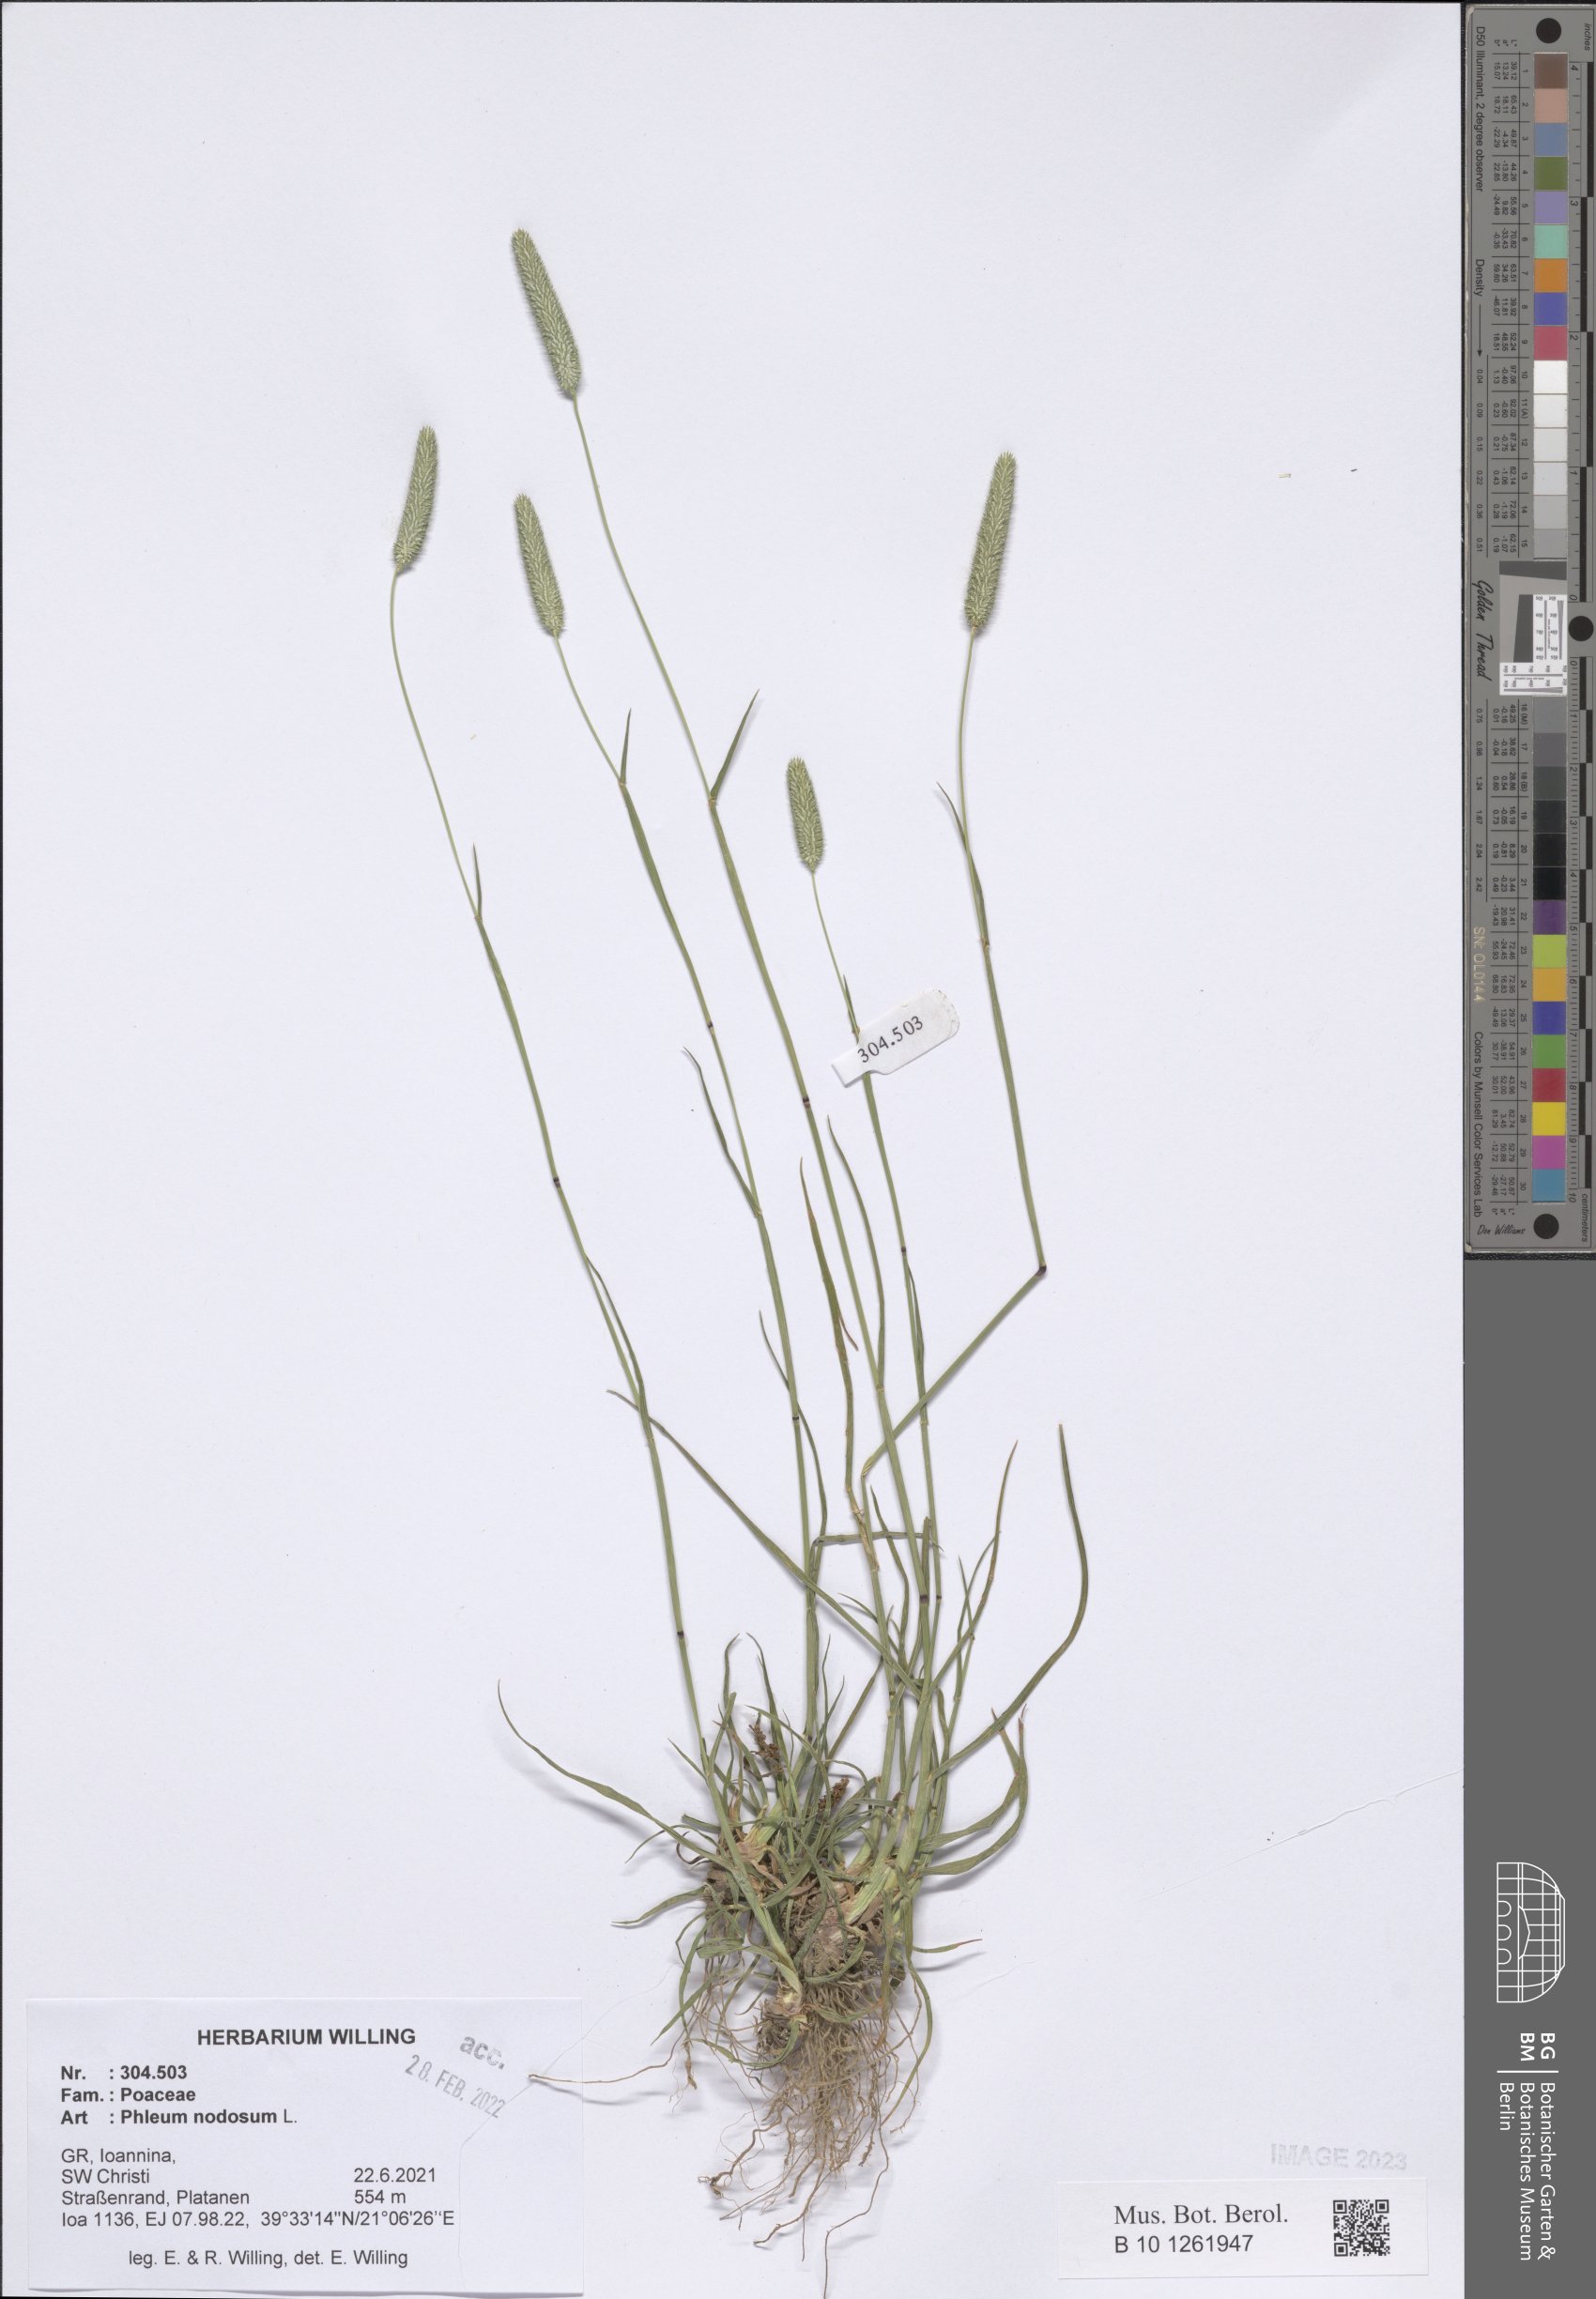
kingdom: Plantae
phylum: Tracheophyta
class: Liliopsida
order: Poales
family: Poaceae
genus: Phleum
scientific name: Phleum pratense
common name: Timothy grass
